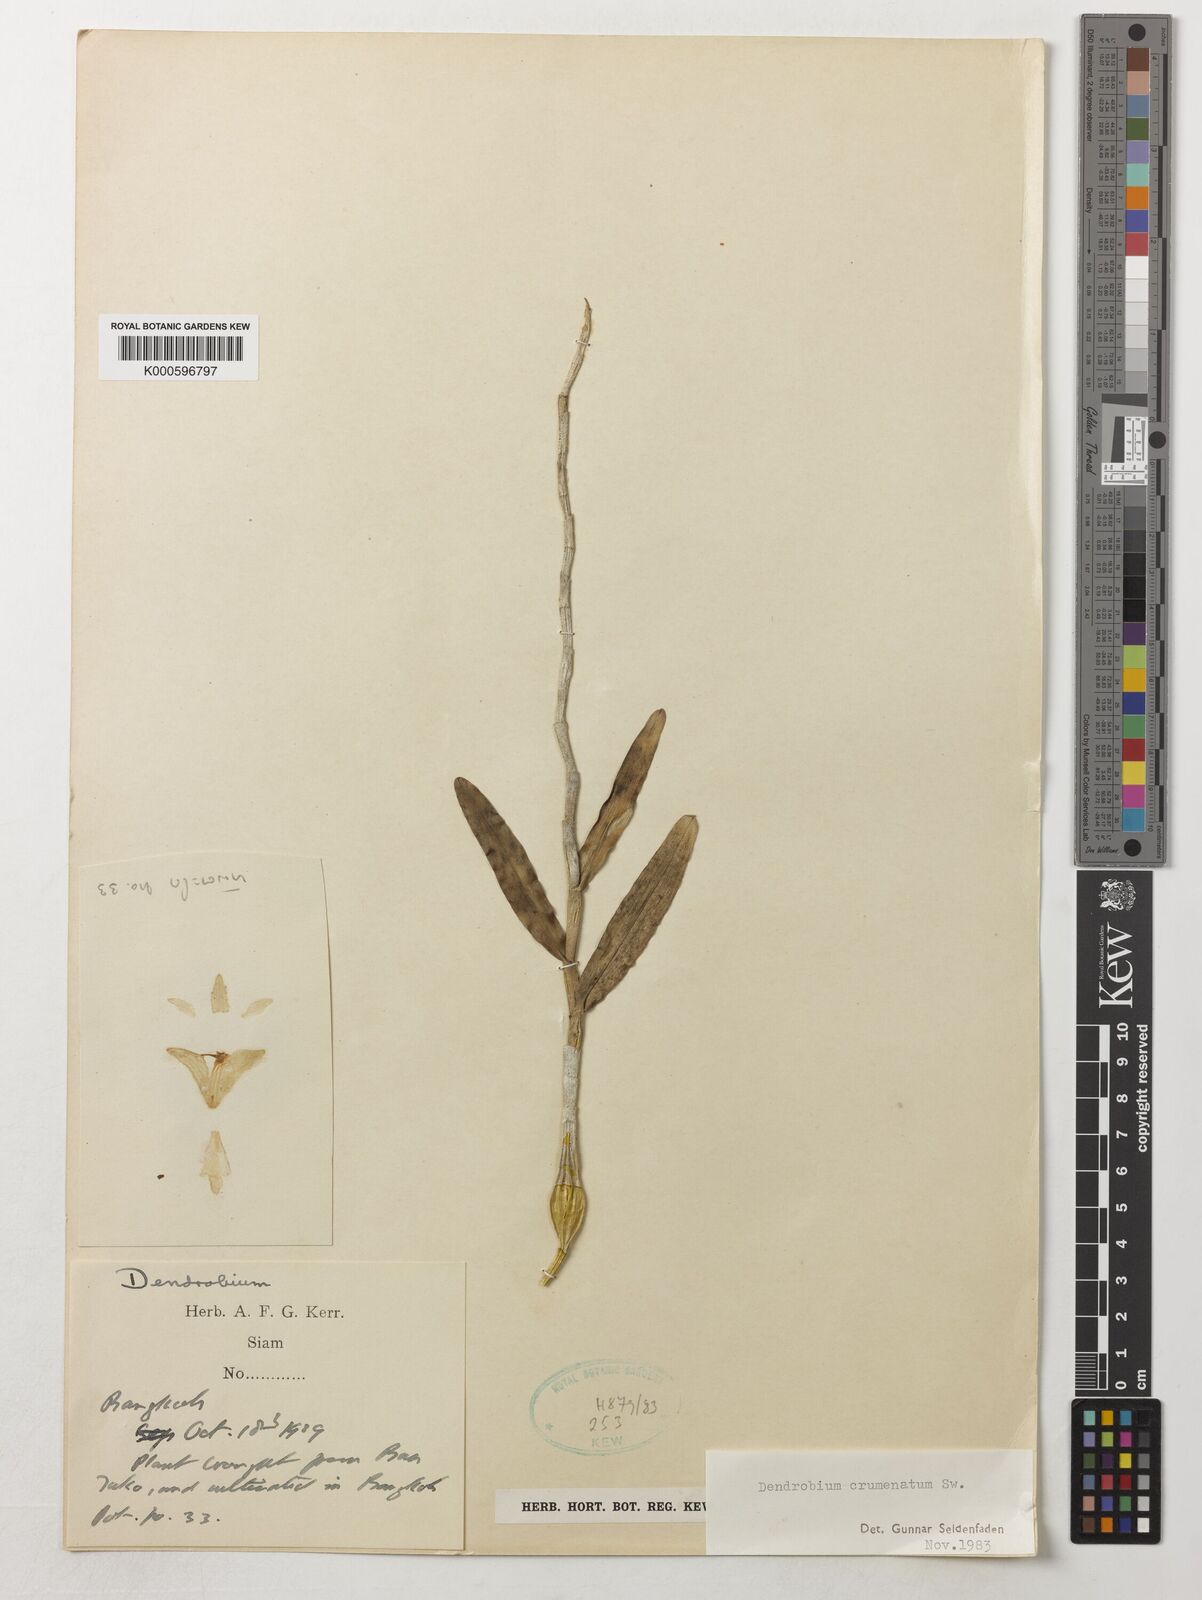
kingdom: Plantae
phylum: Tracheophyta
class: Liliopsida
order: Asparagales
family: Orchidaceae
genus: Dendrobium
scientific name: Dendrobium crumenatum
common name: Orchid
